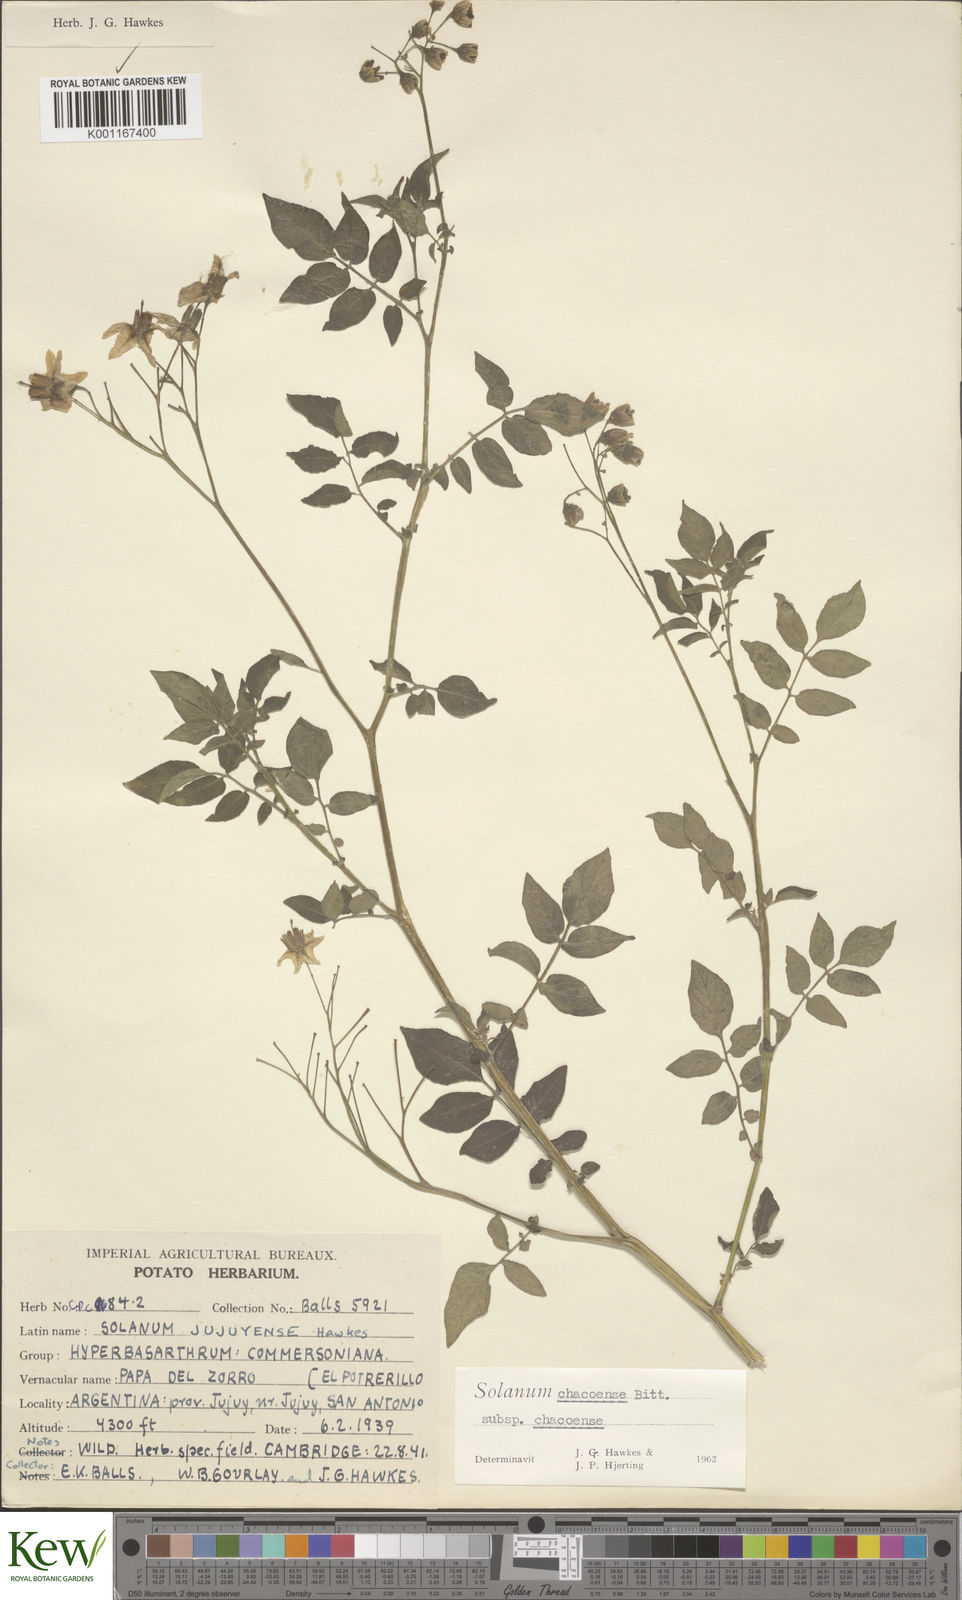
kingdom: Plantae
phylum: Tracheophyta
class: Magnoliopsida
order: Solanales
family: Solanaceae
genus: Solanum
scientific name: Solanum chacoense
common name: Chaco potato
